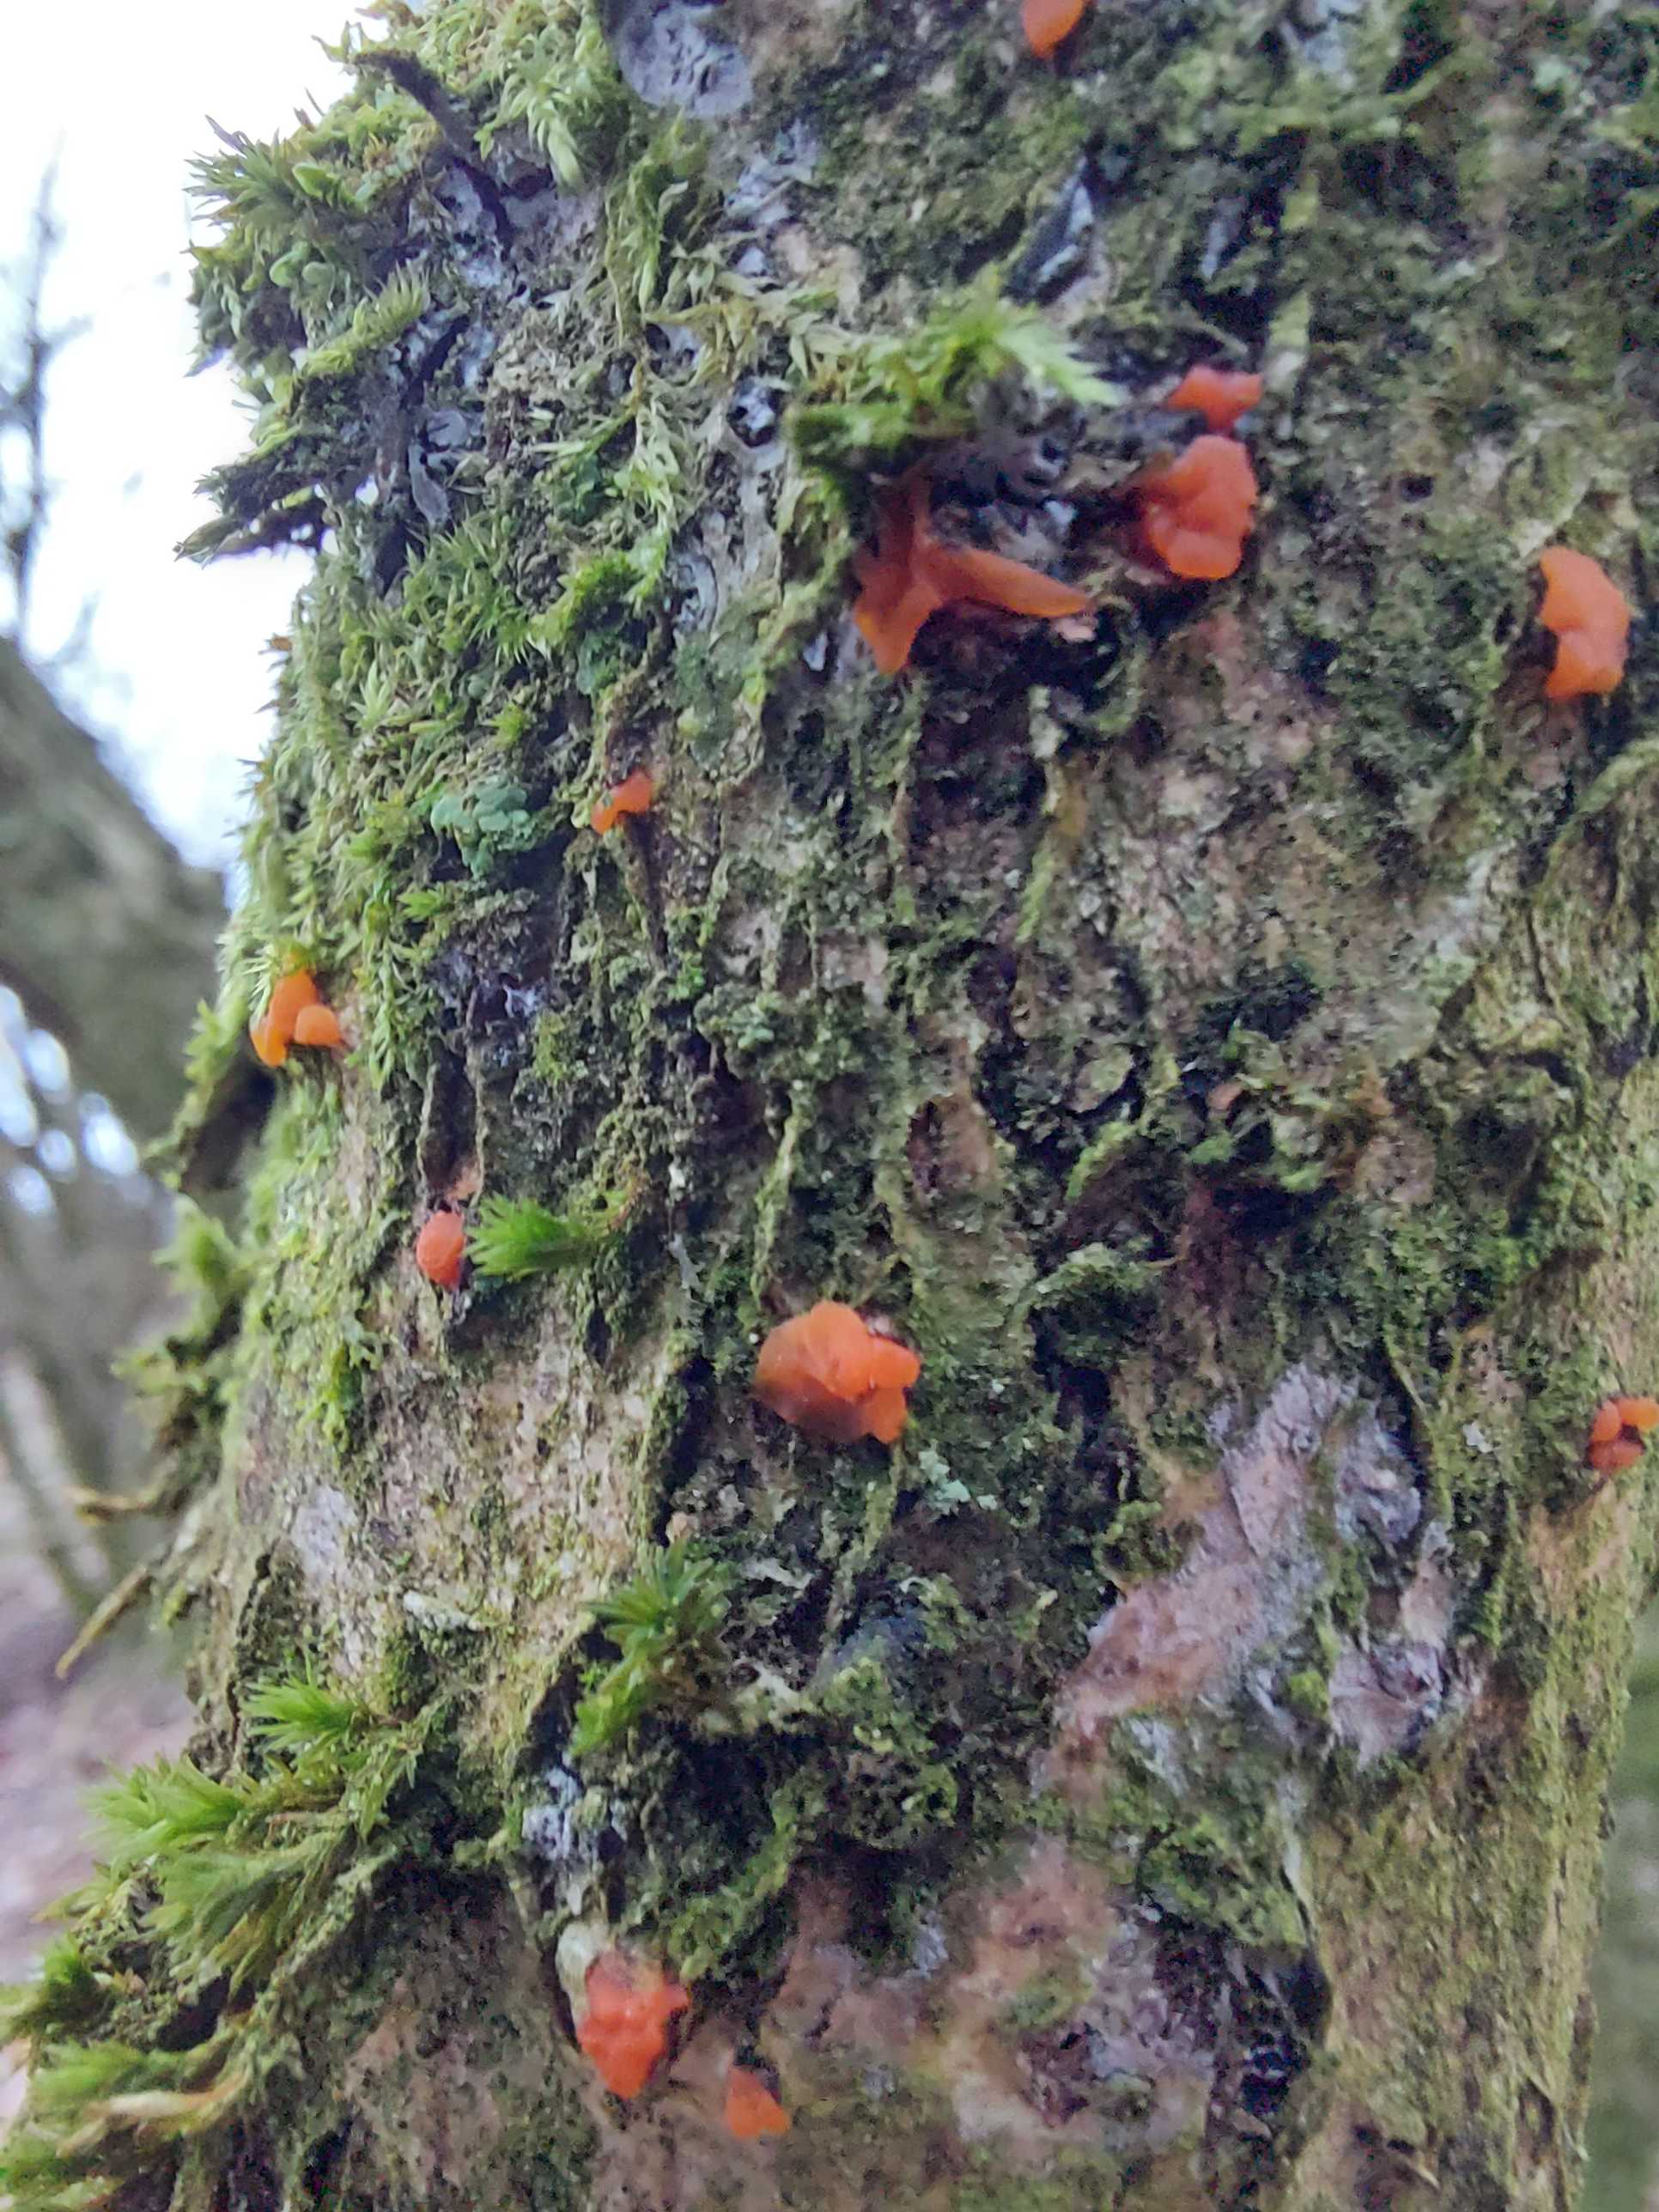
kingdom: Fungi
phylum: Basidiomycota
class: Tremellomycetes
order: Tremellales
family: Tremellaceae
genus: Tremella
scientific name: Tremella mesenterica
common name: gul bævresvamp
